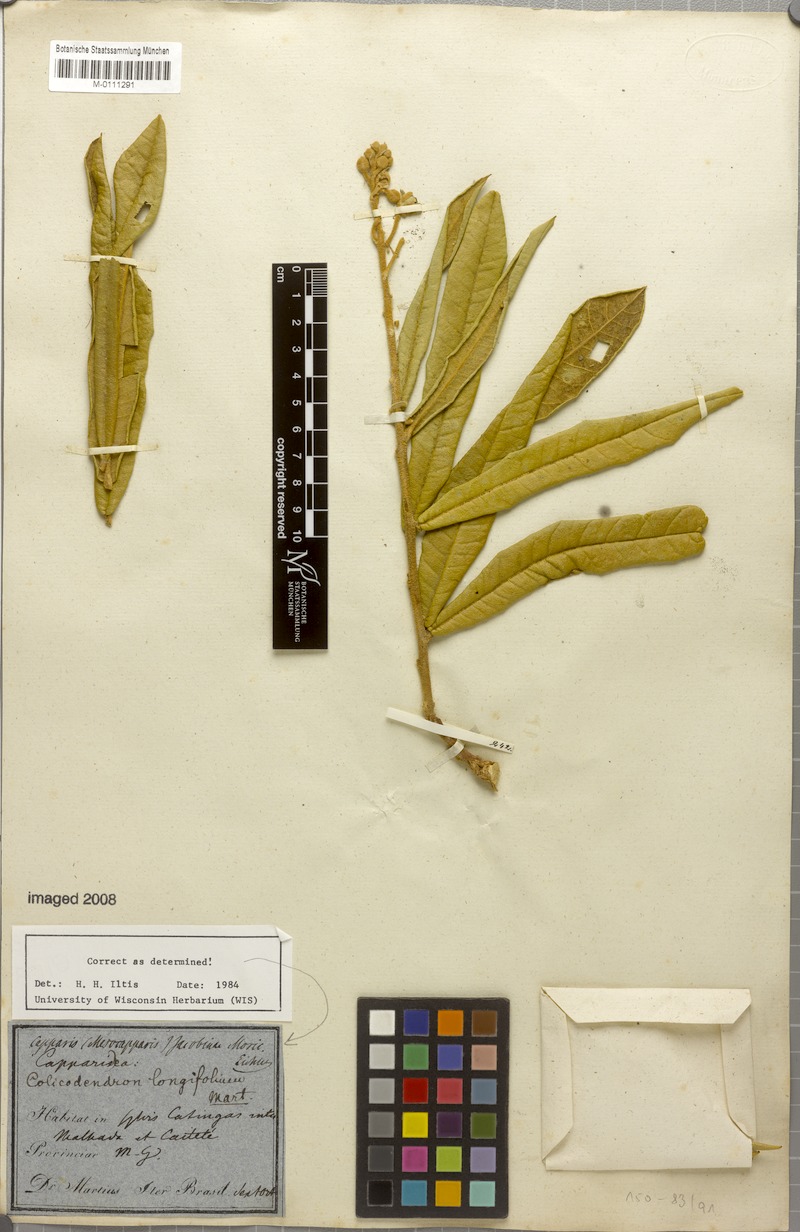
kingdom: Plantae
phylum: Tracheophyta
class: Magnoliopsida
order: Brassicales
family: Capparaceae
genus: Neocalyptrocalyx
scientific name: Neocalyptrocalyx longifolium
